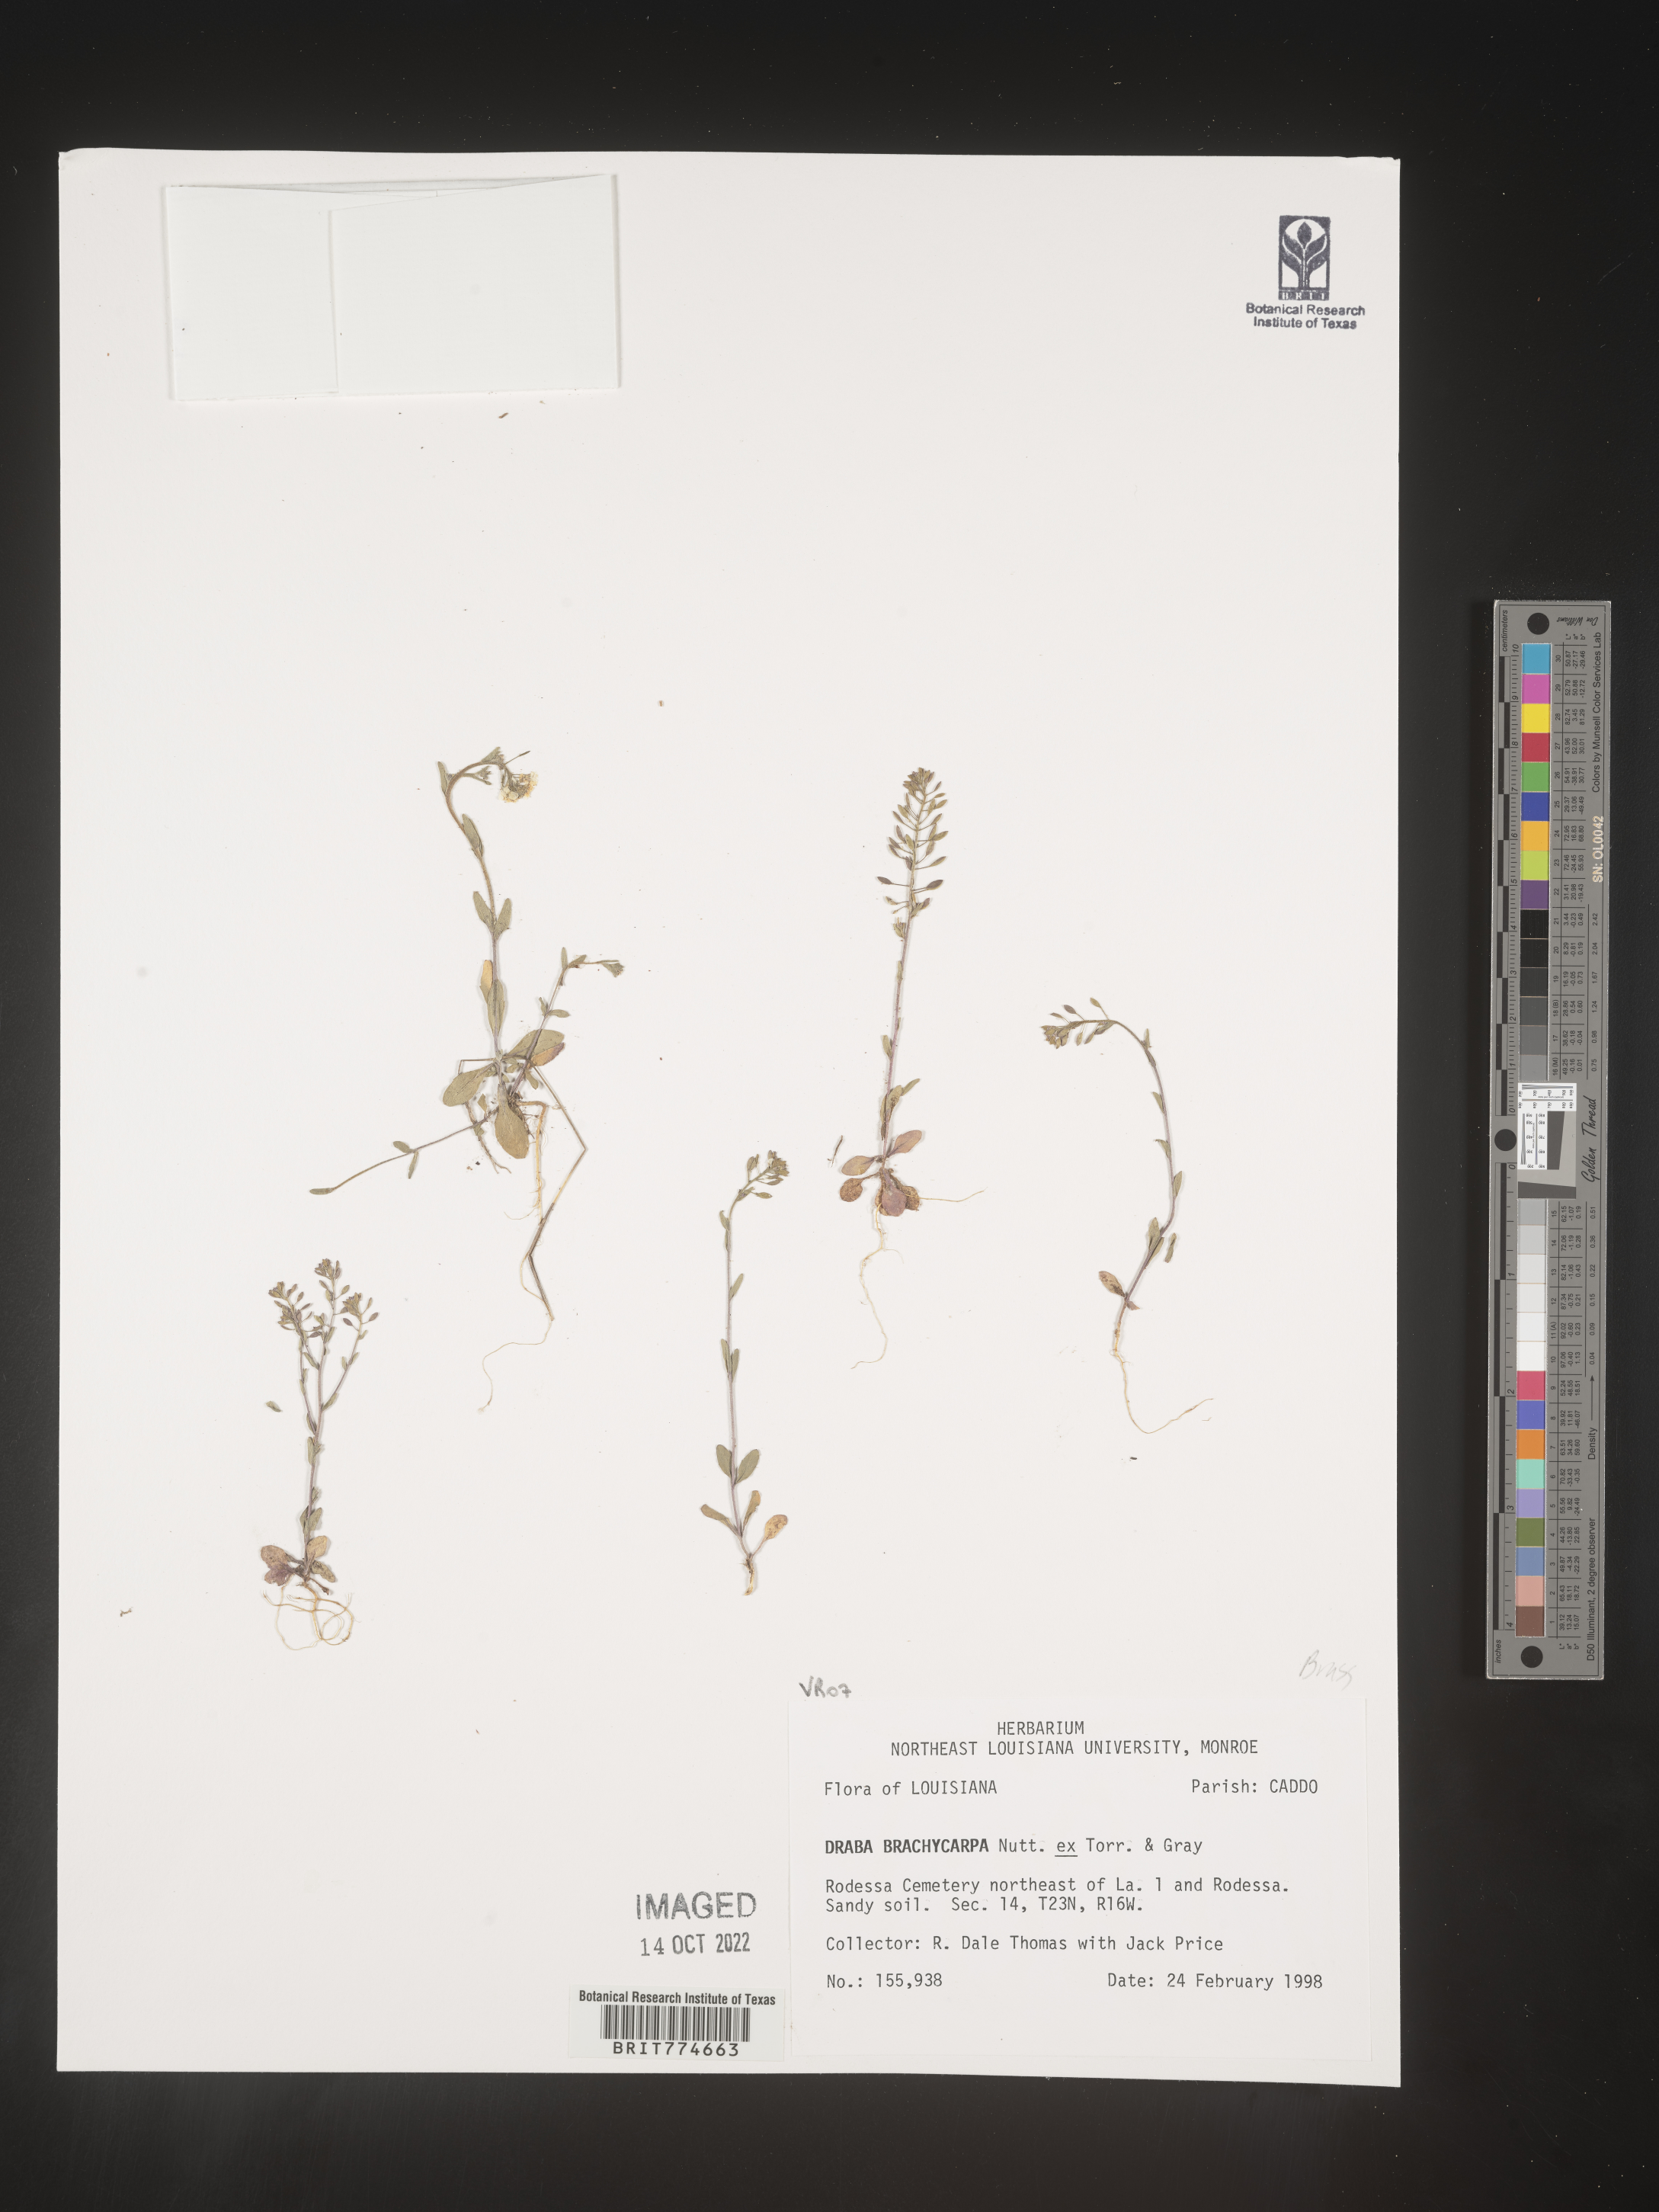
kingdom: Plantae
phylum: Tracheophyta
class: Magnoliopsida
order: Brassicales
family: Brassicaceae
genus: Abdra
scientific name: Abdra brachycarpa
